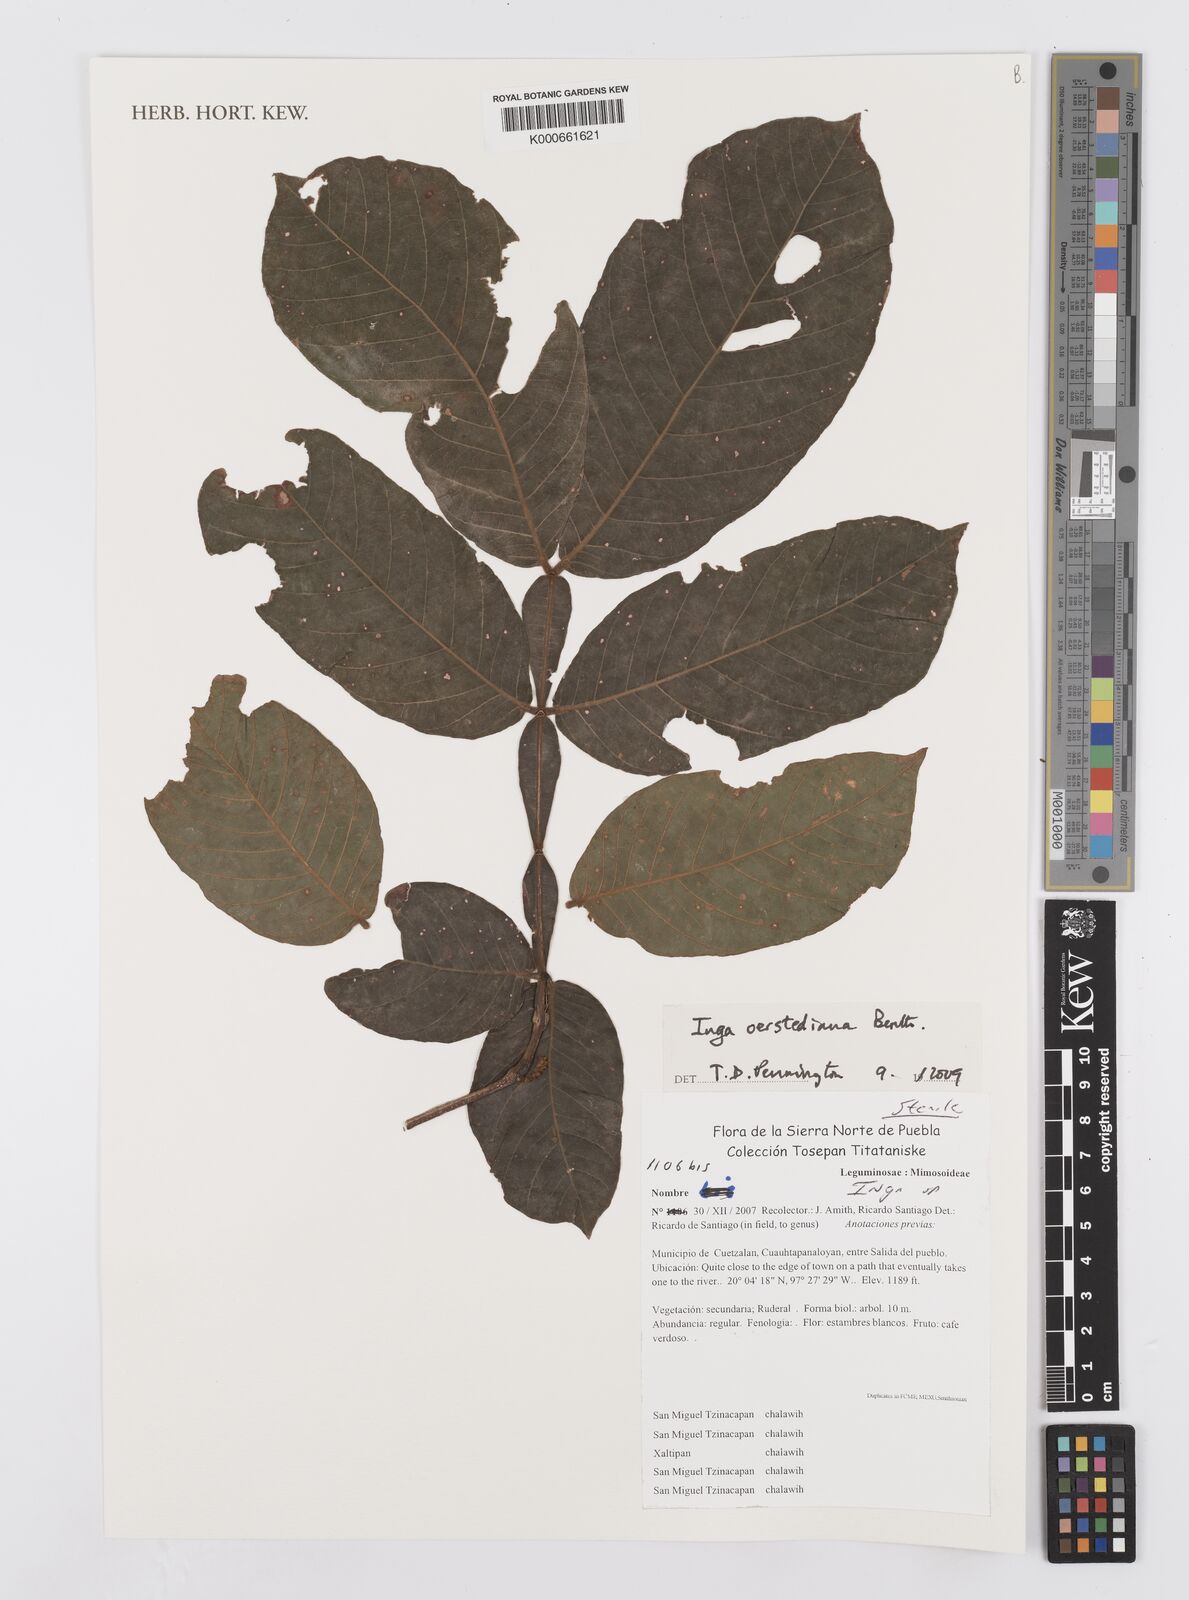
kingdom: Plantae
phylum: Tracheophyta
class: Magnoliopsida
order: Fabales
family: Fabaceae
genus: Inga
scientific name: Inga oerstediana
